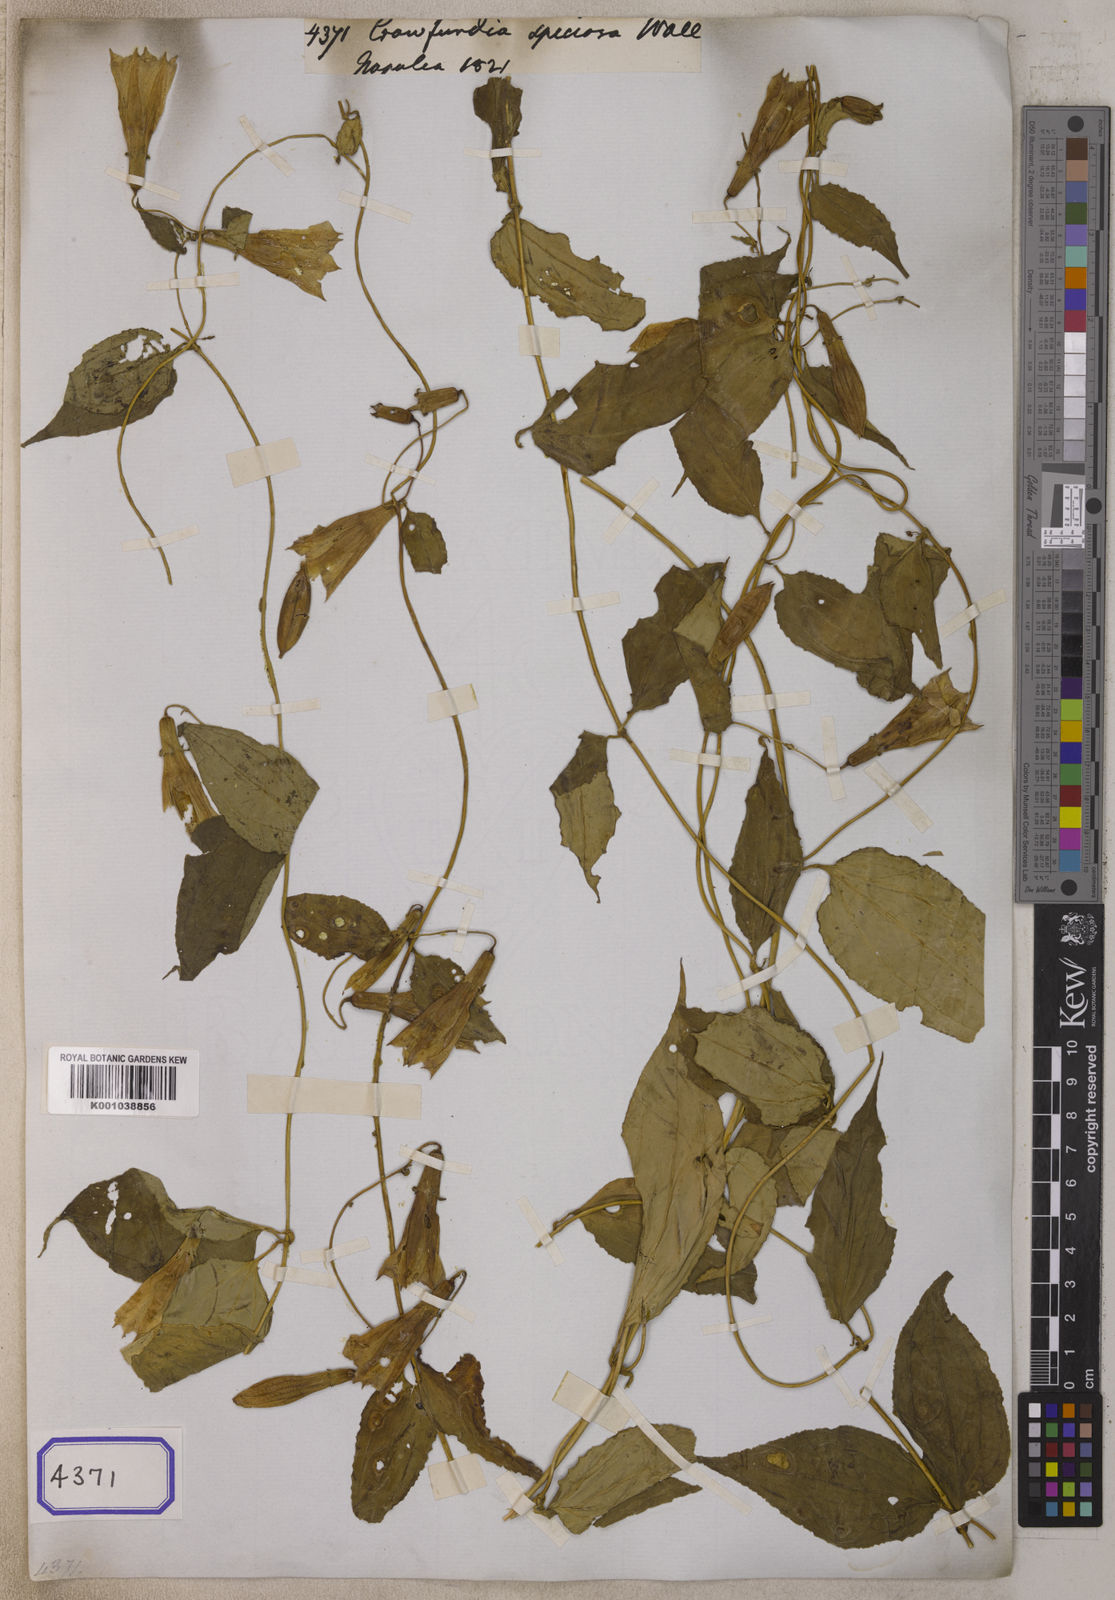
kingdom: Plantae
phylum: Tracheophyta
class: Magnoliopsida
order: Gentianales
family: Gentianaceae
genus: Crawfurdia
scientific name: Crawfurdia speciosa
